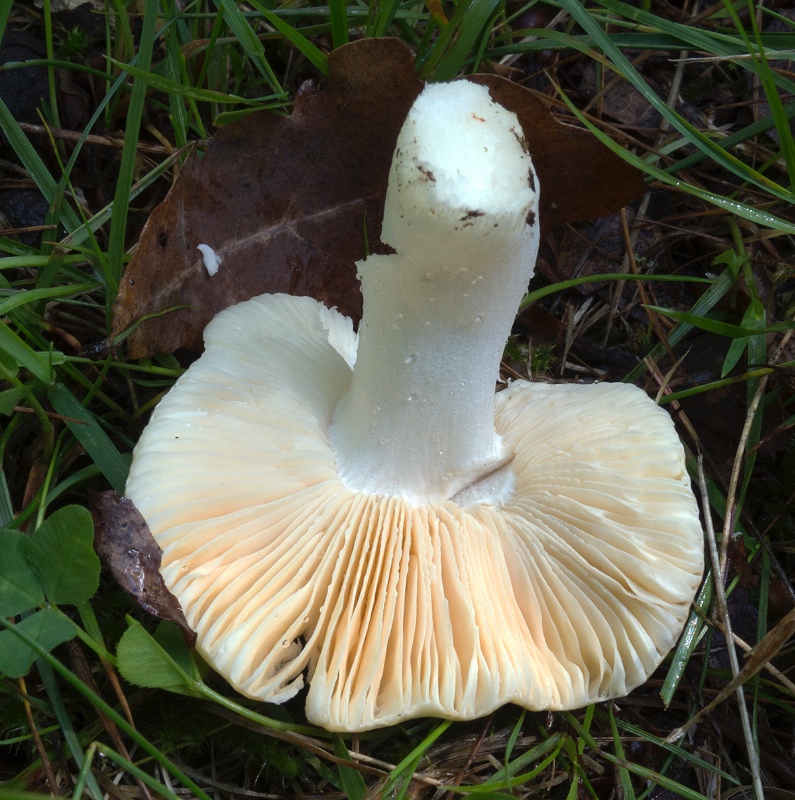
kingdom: Fungi
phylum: Basidiomycota
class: Agaricomycetes
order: Russulales
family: Russulaceae
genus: Russula
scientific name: Russula risigallina
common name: abrikos-skørhat
